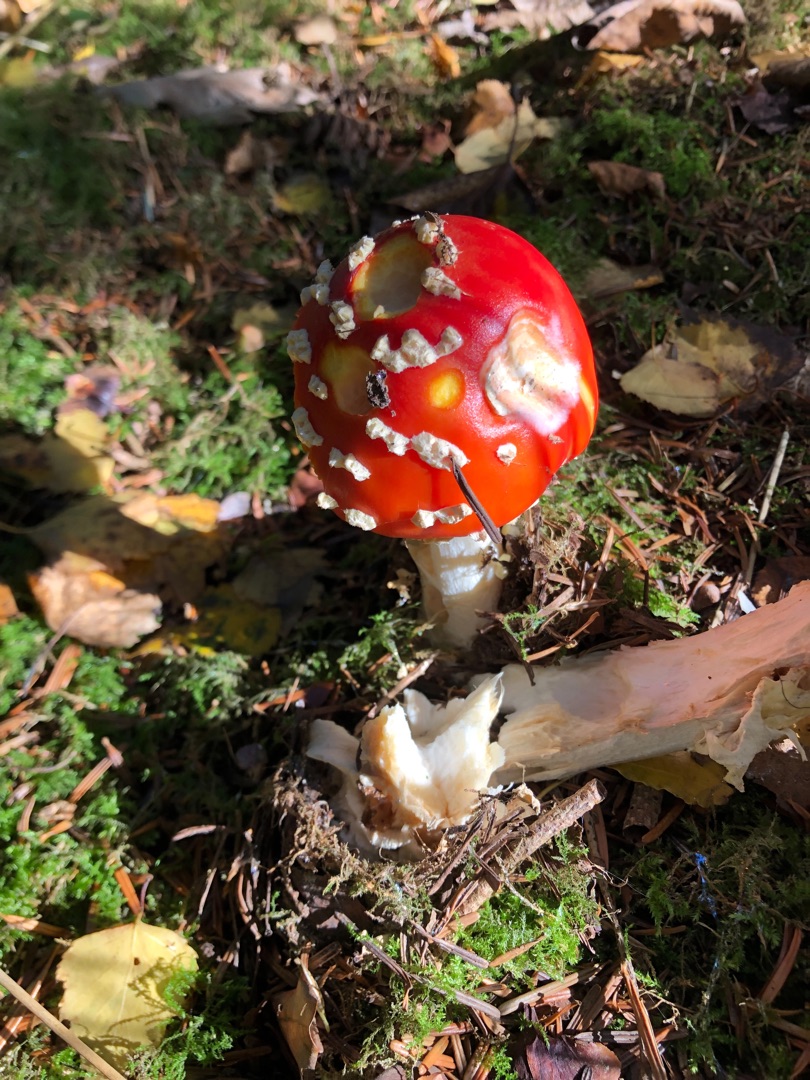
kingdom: Fungi
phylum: Basidiomycota
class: Agaricomycetes
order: Agaricales
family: Amanitaceae
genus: Amanita
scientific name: Amanita muscaria
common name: Rød fluesvamp
